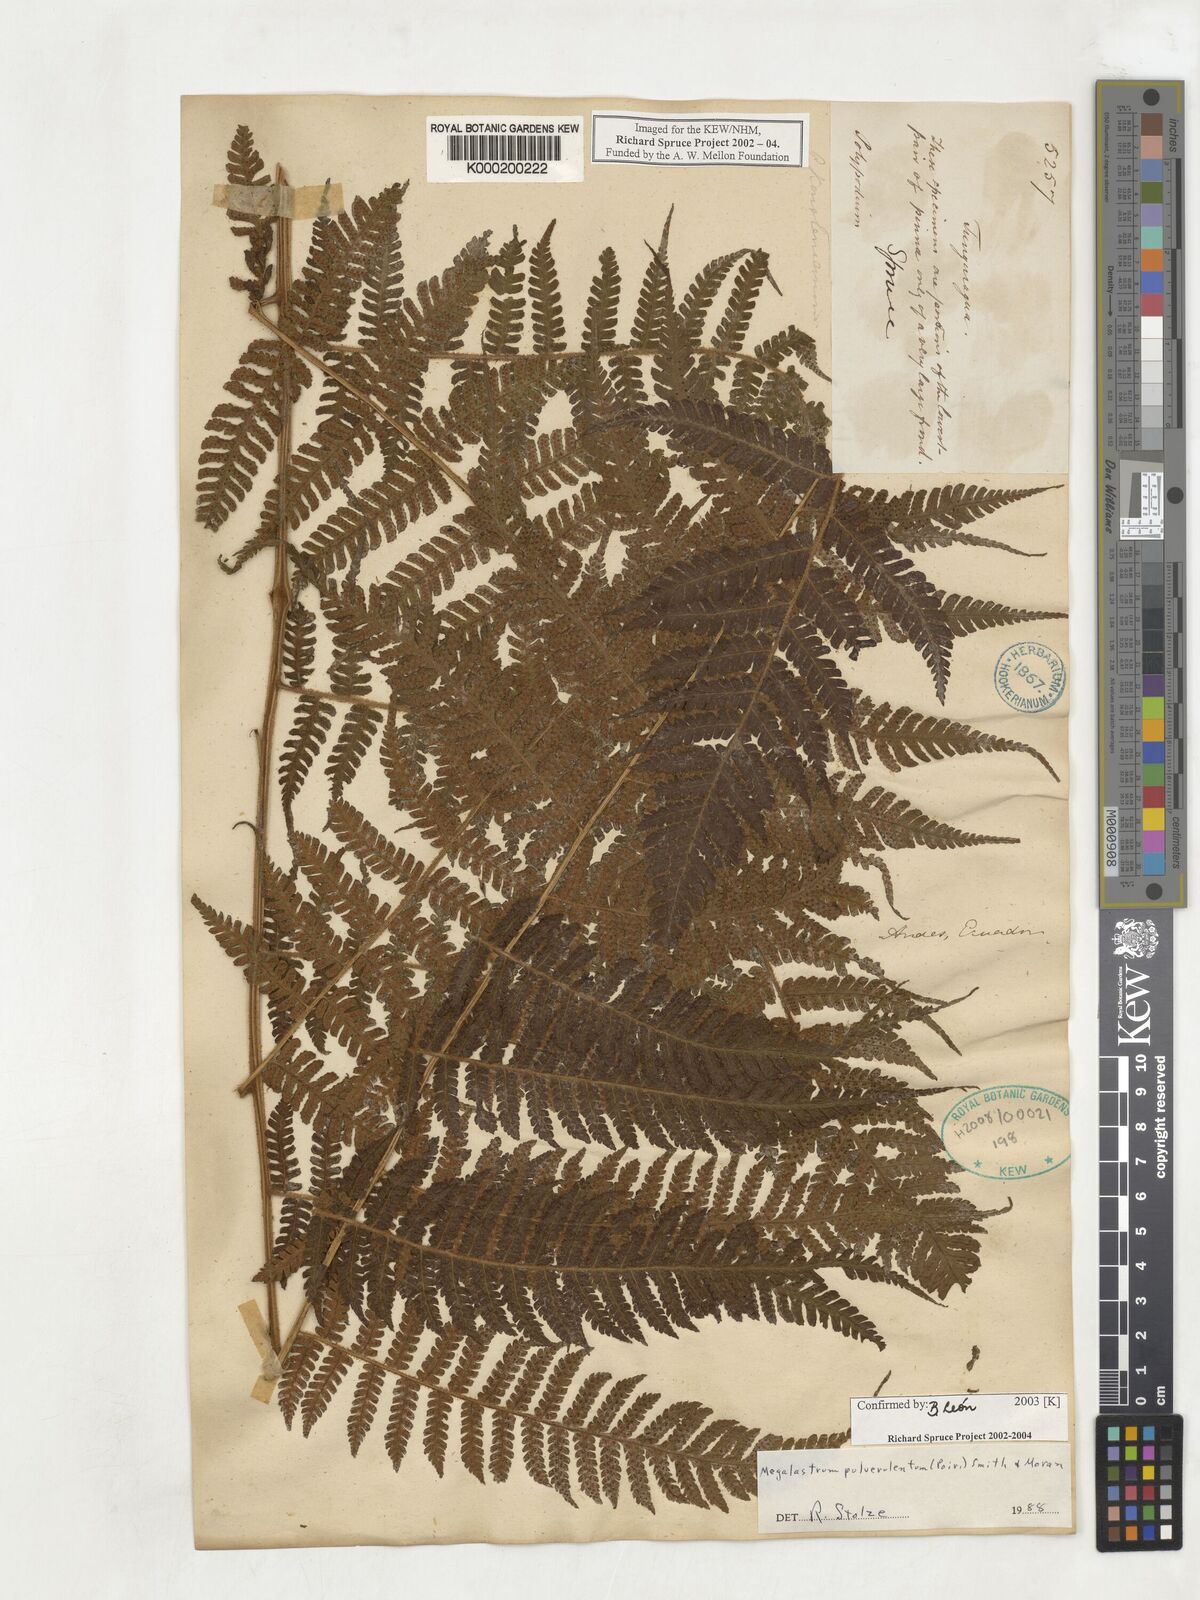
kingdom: Plantae
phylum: Tracheophyta
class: Polypodiopsida
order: Polypodiales
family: Dryopteridaceae
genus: Megalastrum
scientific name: Megalastrum
